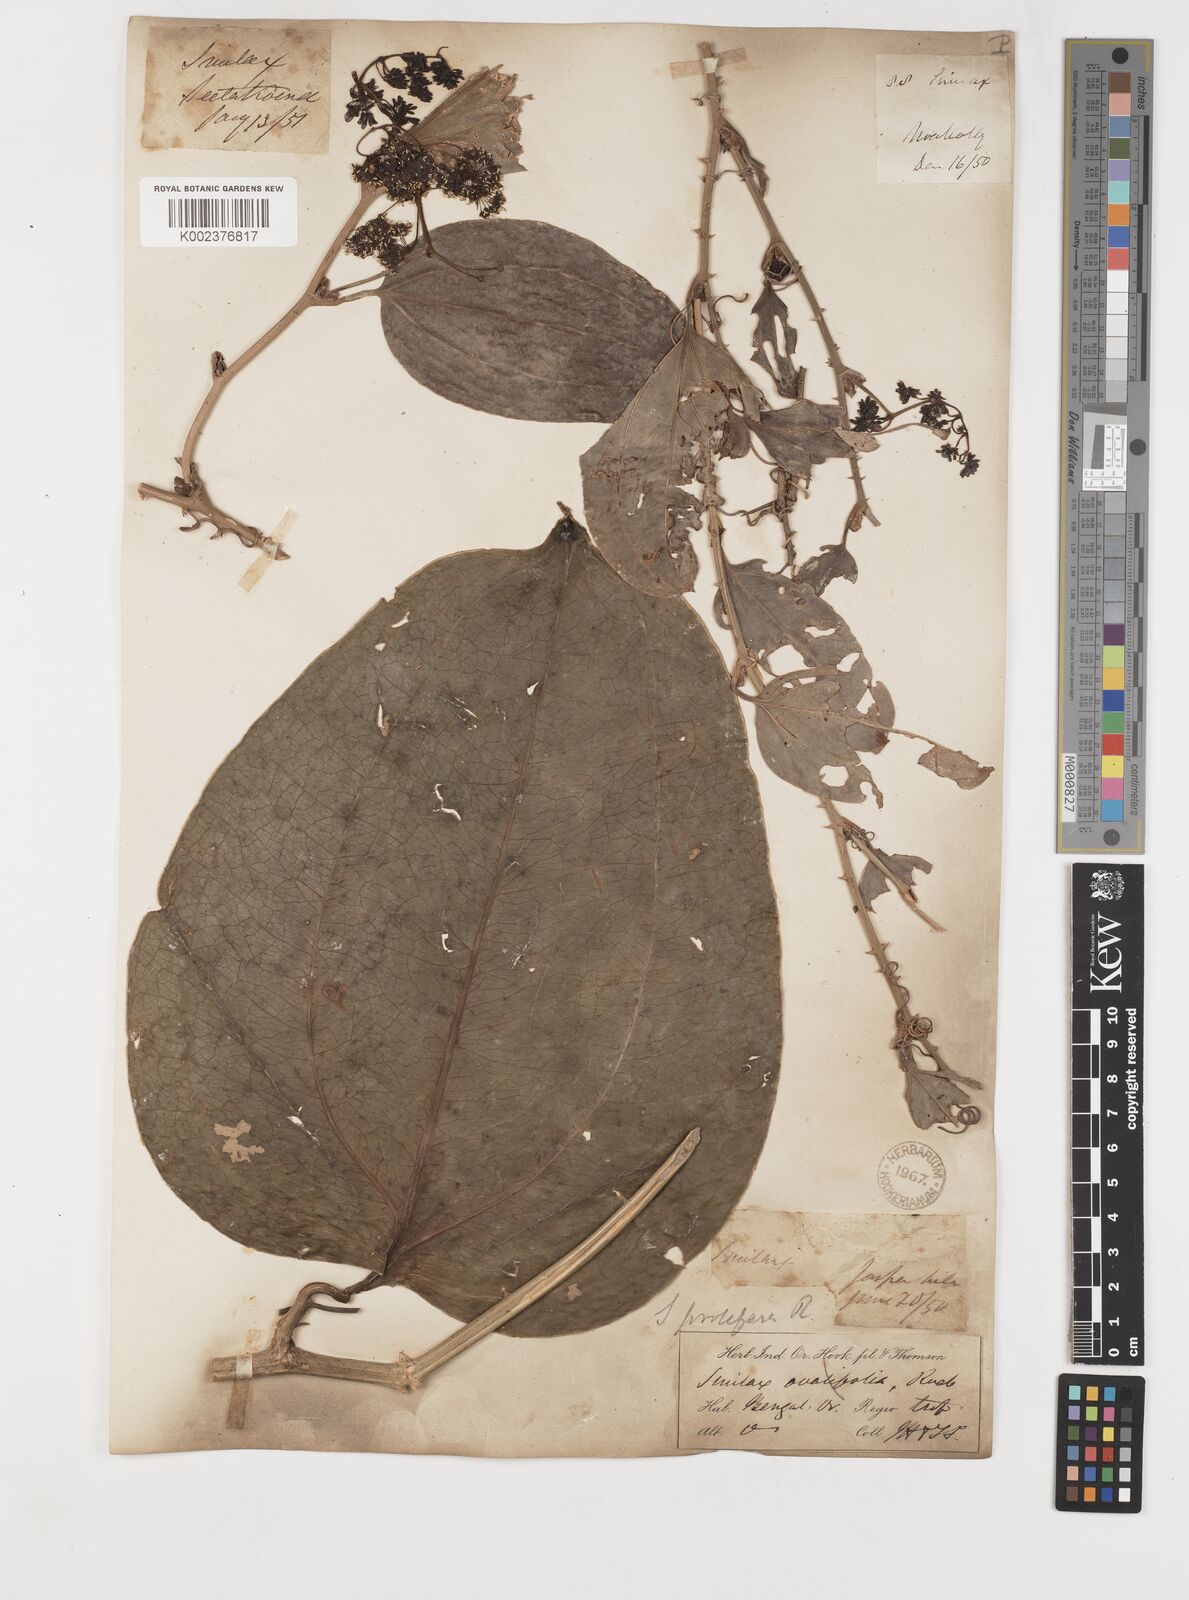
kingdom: Plantae
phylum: Tracheophyta
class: Liliopsida
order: Liliales
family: Smilacaceae
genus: Smilax
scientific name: Smilax prolifera
